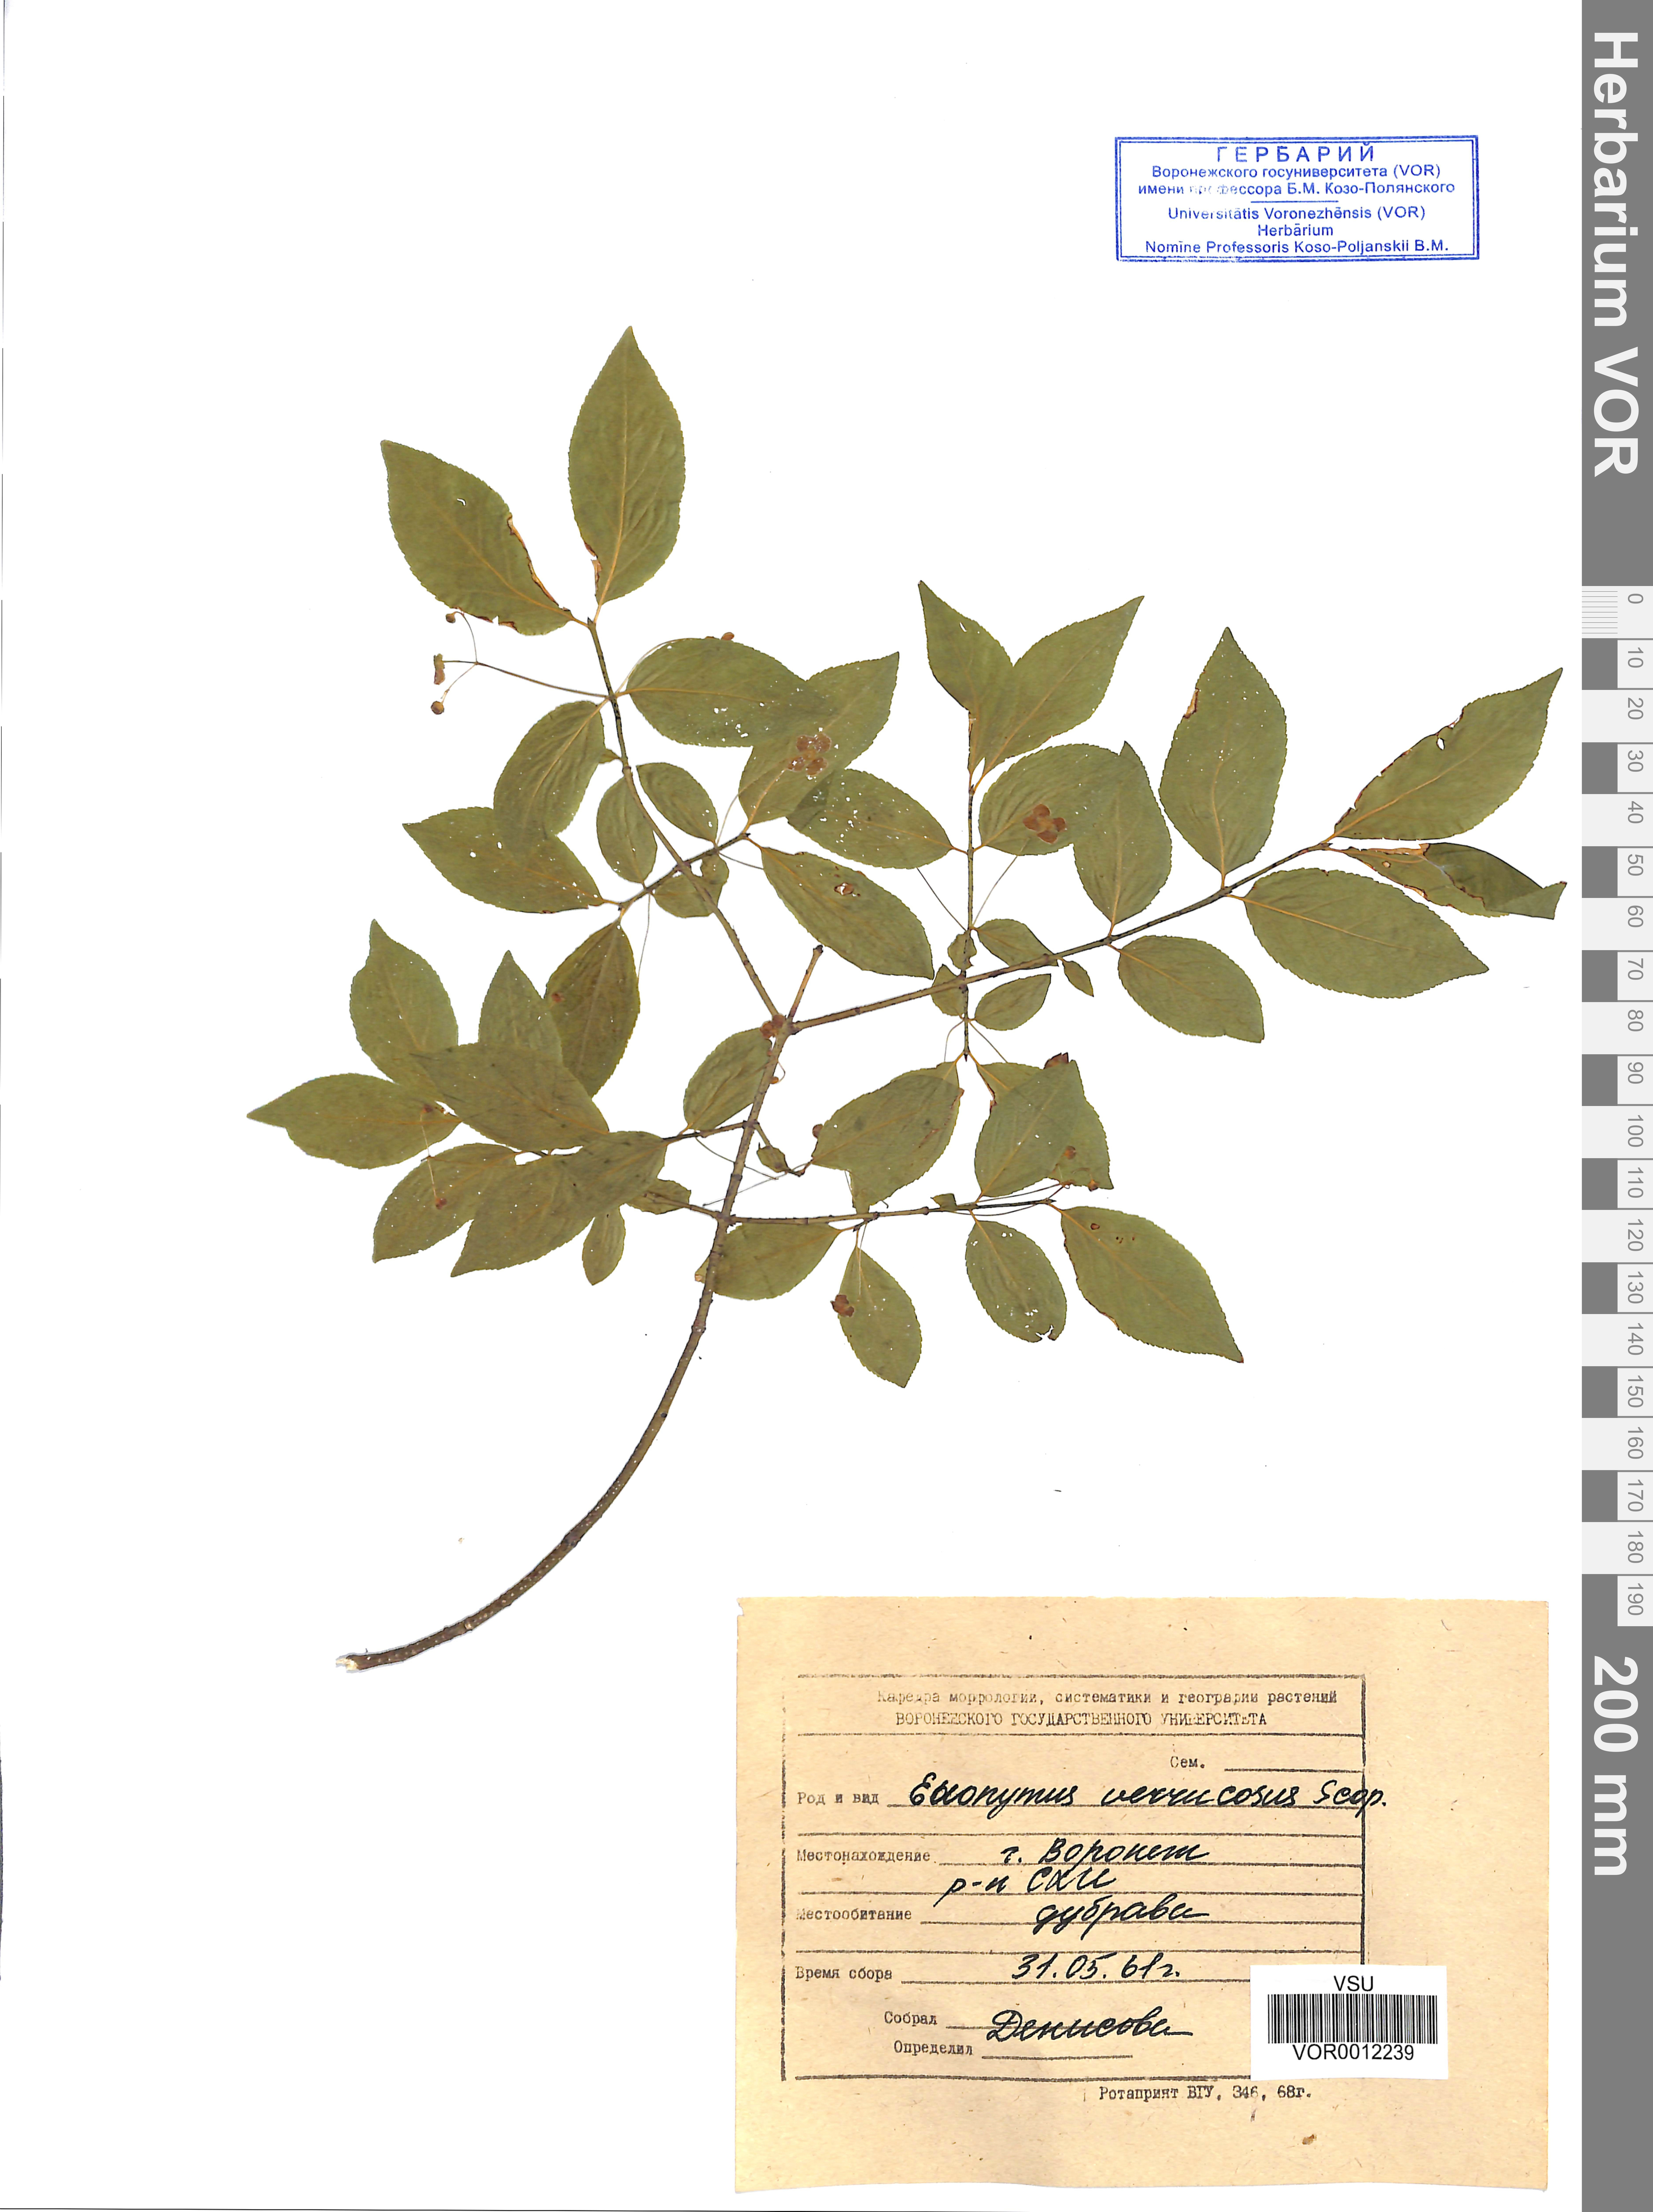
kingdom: Plantae
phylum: Tracheophyta
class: Magnoliopsida
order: Celastrales
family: Celastraceae
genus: Euonymus
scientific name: Euonymus verrucosus
